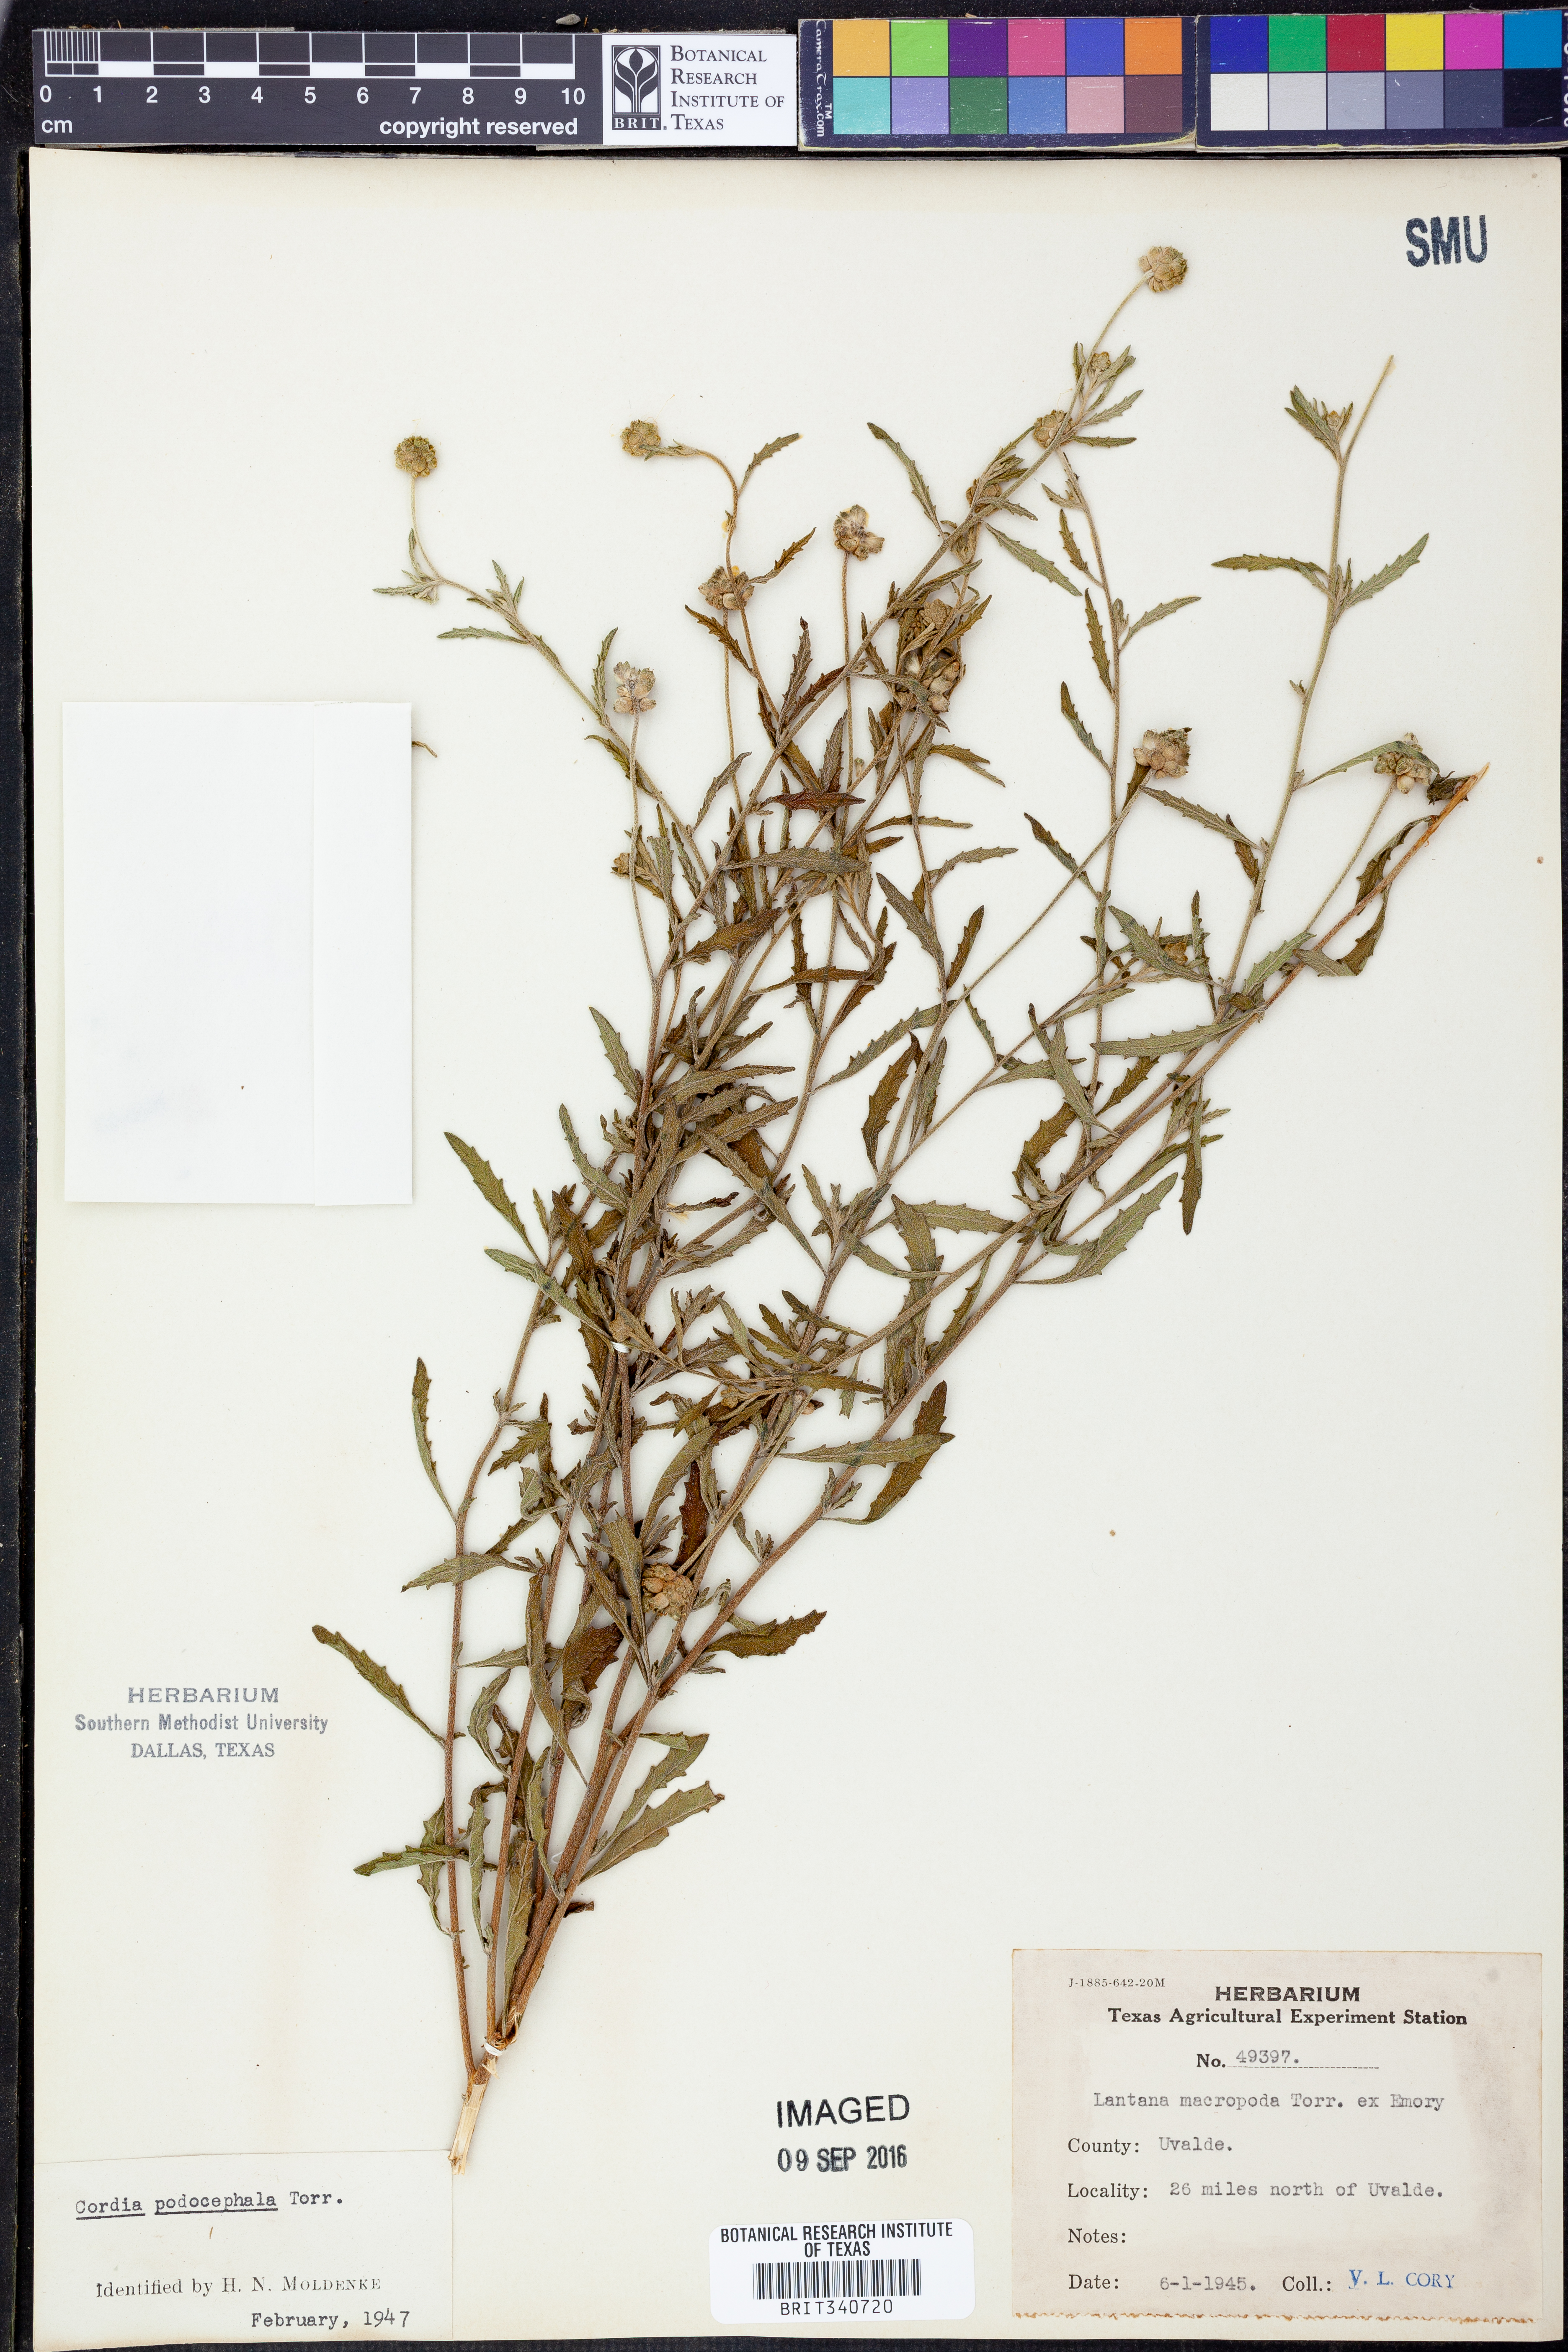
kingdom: Plantae
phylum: Tracheophyta
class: Magnoliopsida
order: Lamiales
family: Verbenaceae
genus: Lantana
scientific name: Lantana achyranthifolia
